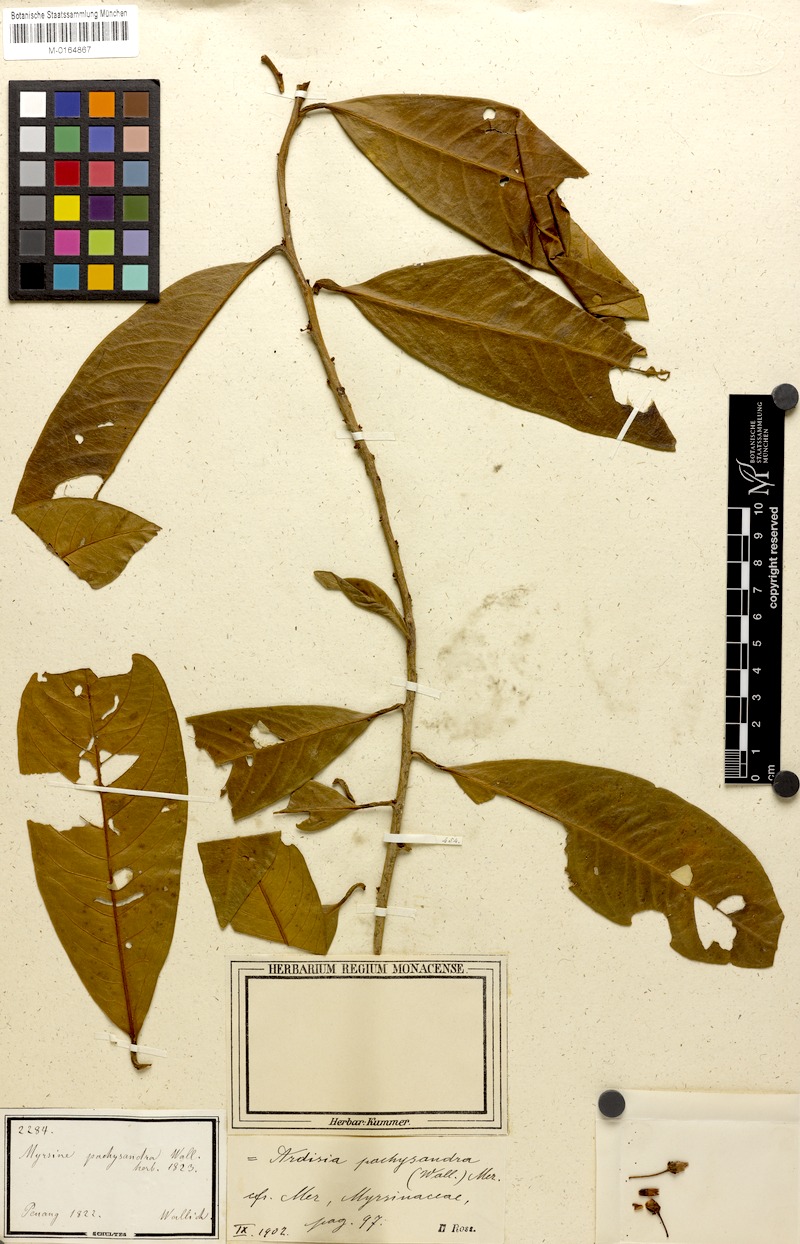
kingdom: Plantae
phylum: Tracheophyta
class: Magnoliopsida
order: Ericales
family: Primulaceae
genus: Ardisia
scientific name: Ardisia pachysandra
